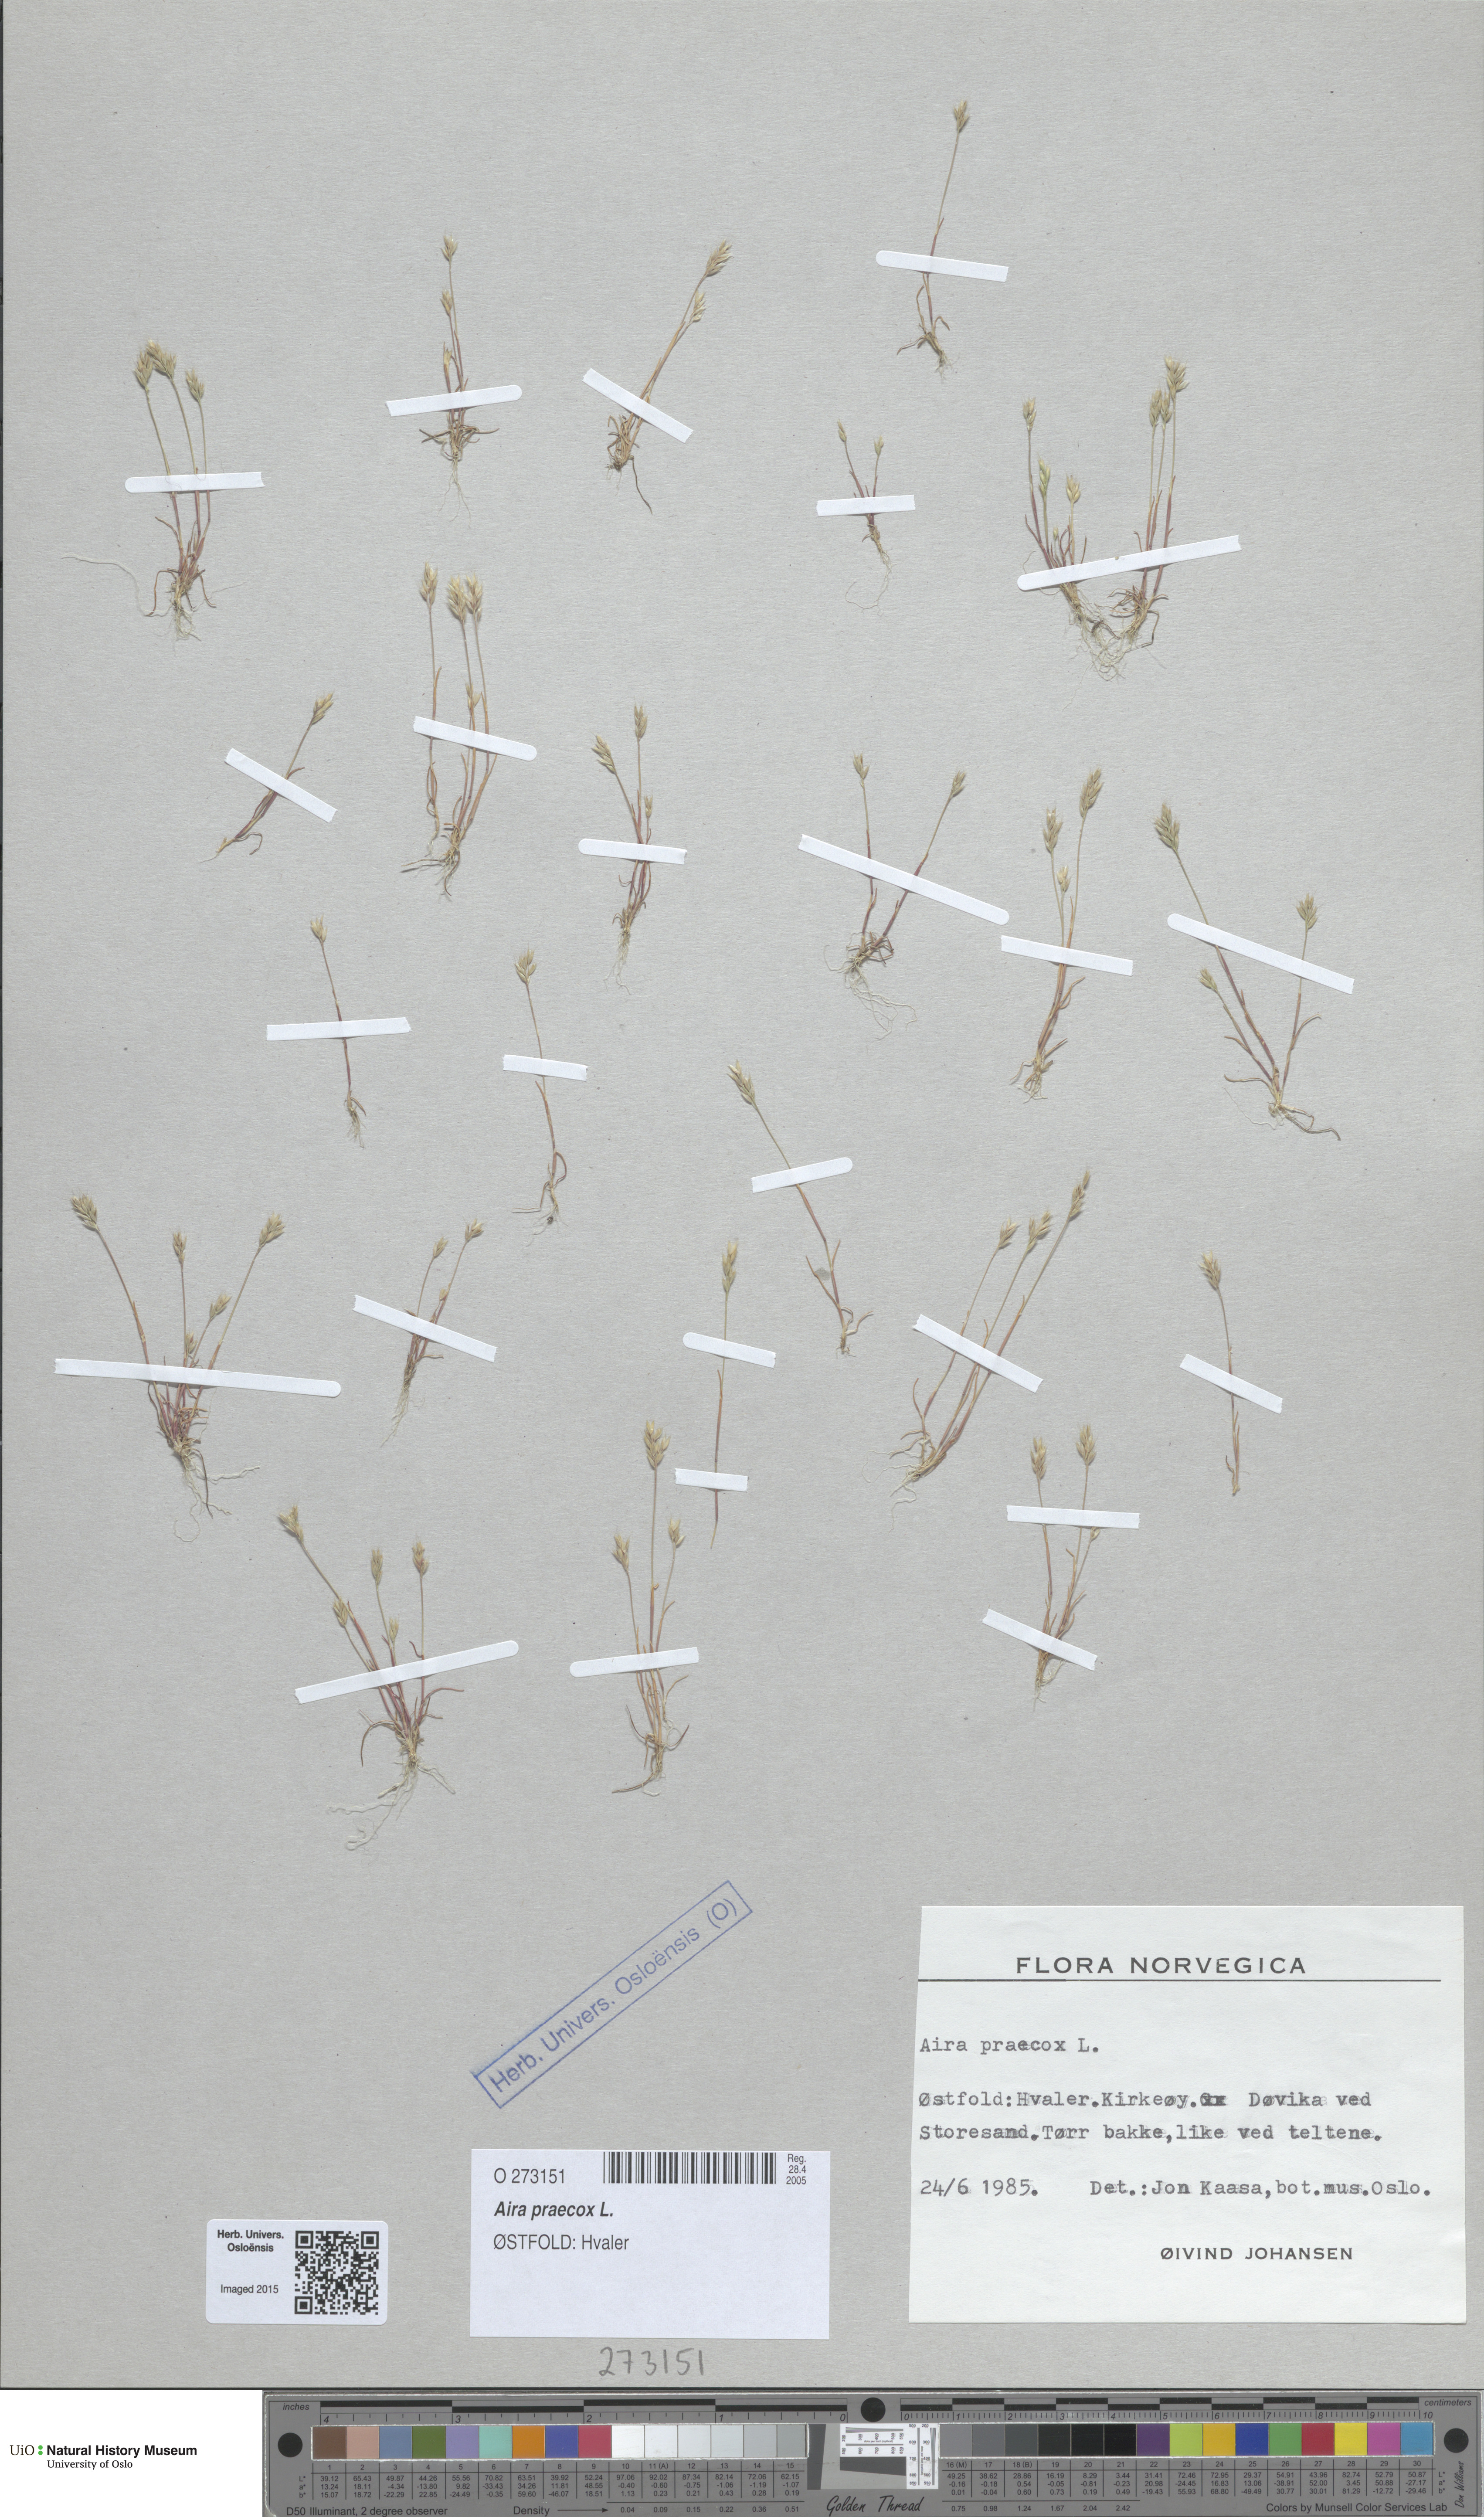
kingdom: Plantae
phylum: Tracheophyta
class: Liliopsida
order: Poales
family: Poaceae
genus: Aira
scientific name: Aira praecox
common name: Early hair-grass
